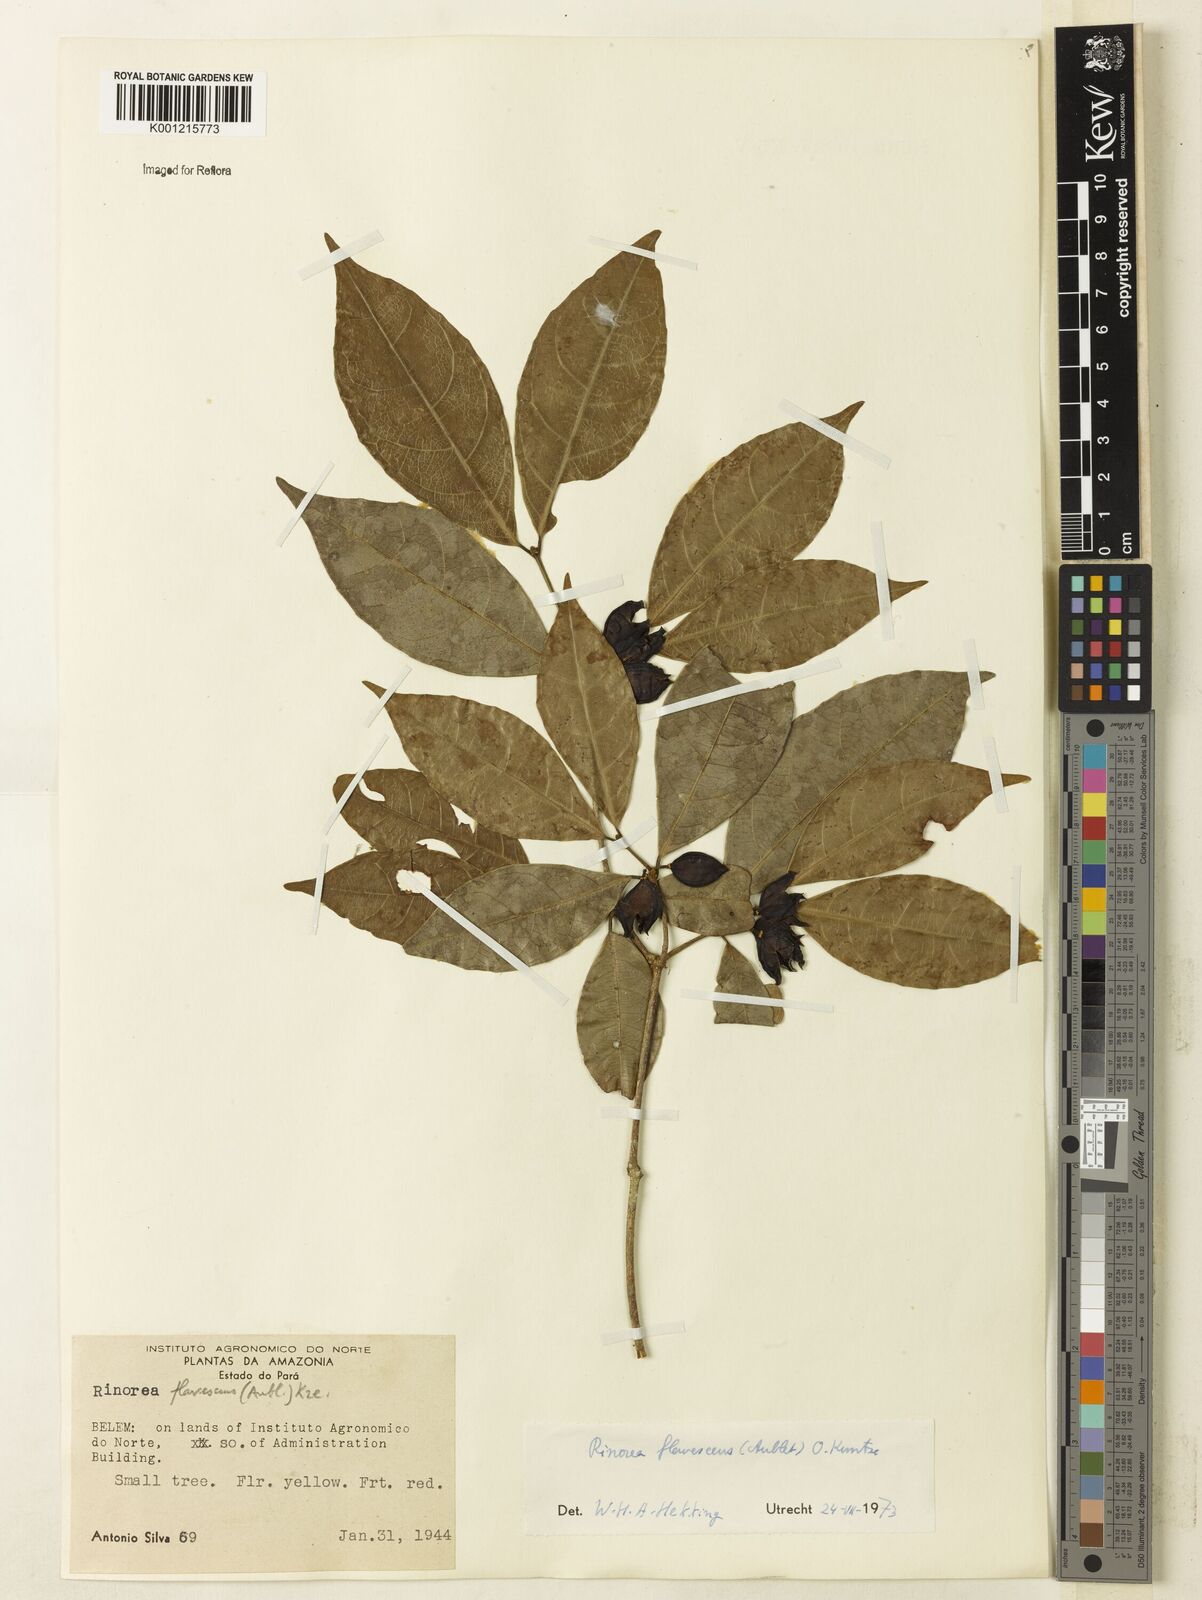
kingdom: Plantae
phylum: Tracheophyta
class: Magnoliopsida
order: Malpighiales
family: Violaceae
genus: Rinorea
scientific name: Rinorea flavescens
